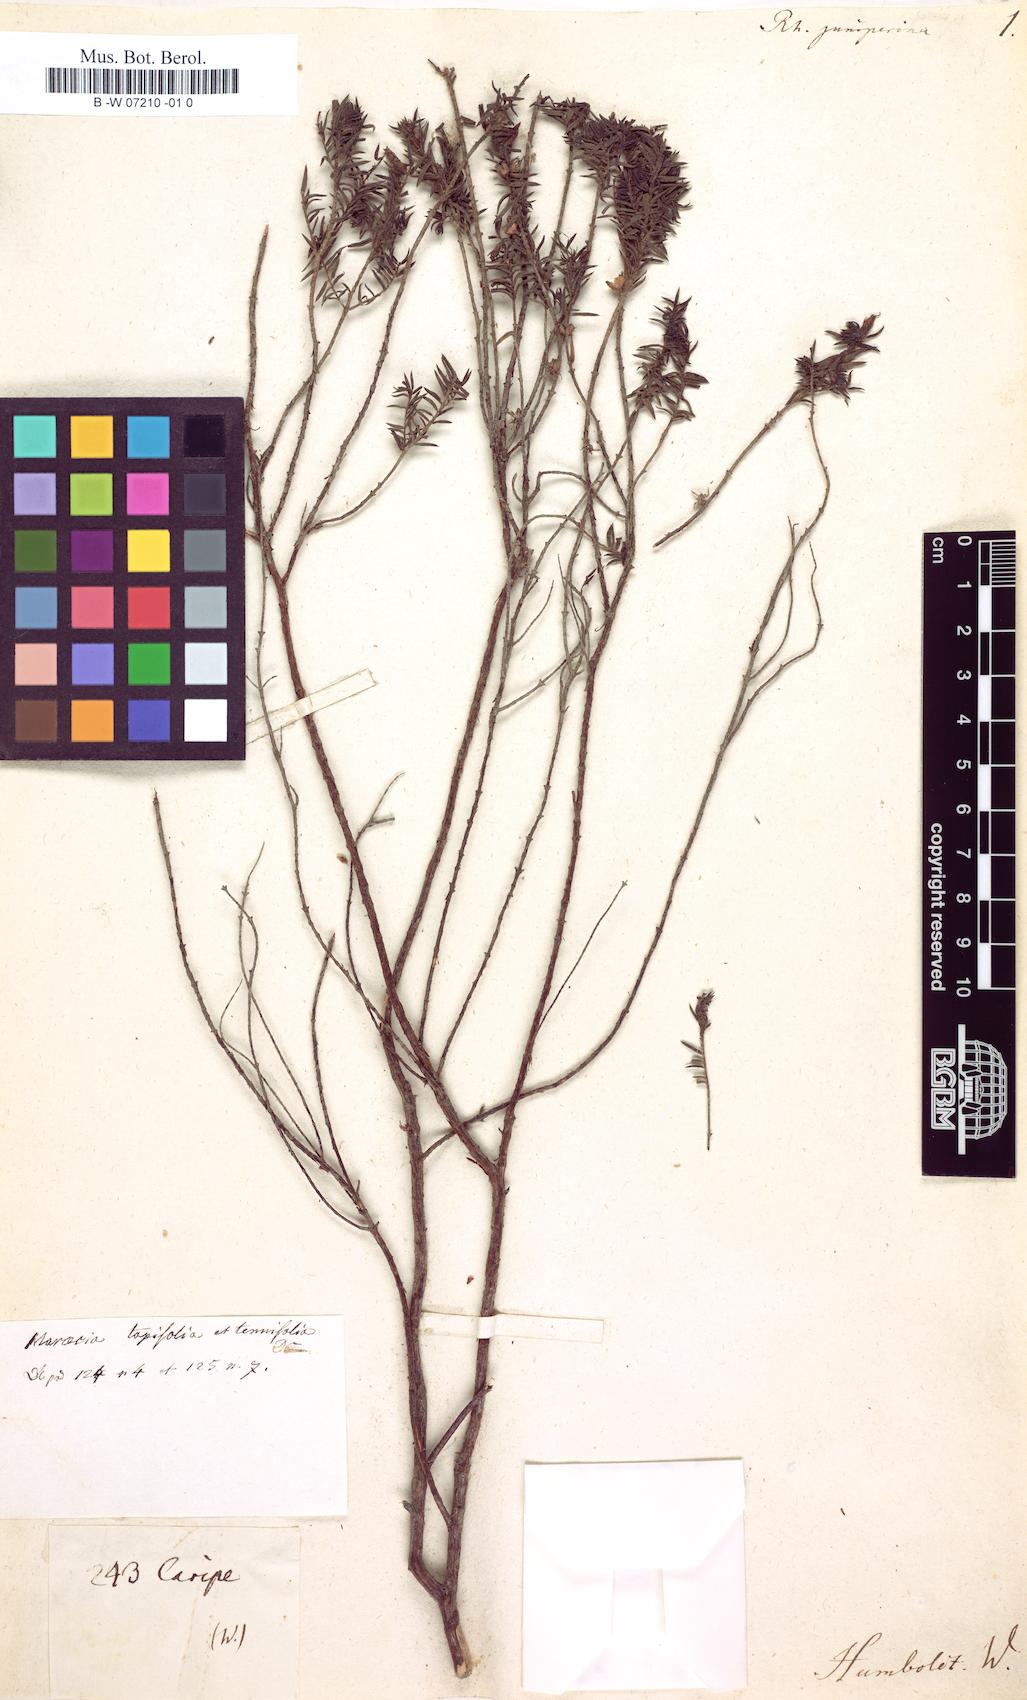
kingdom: Plantae
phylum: Tracheophyta
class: Magnoliopsida
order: Myrtales
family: Melastomataceae
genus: Marcetia
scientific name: Marcetia taxifolia
